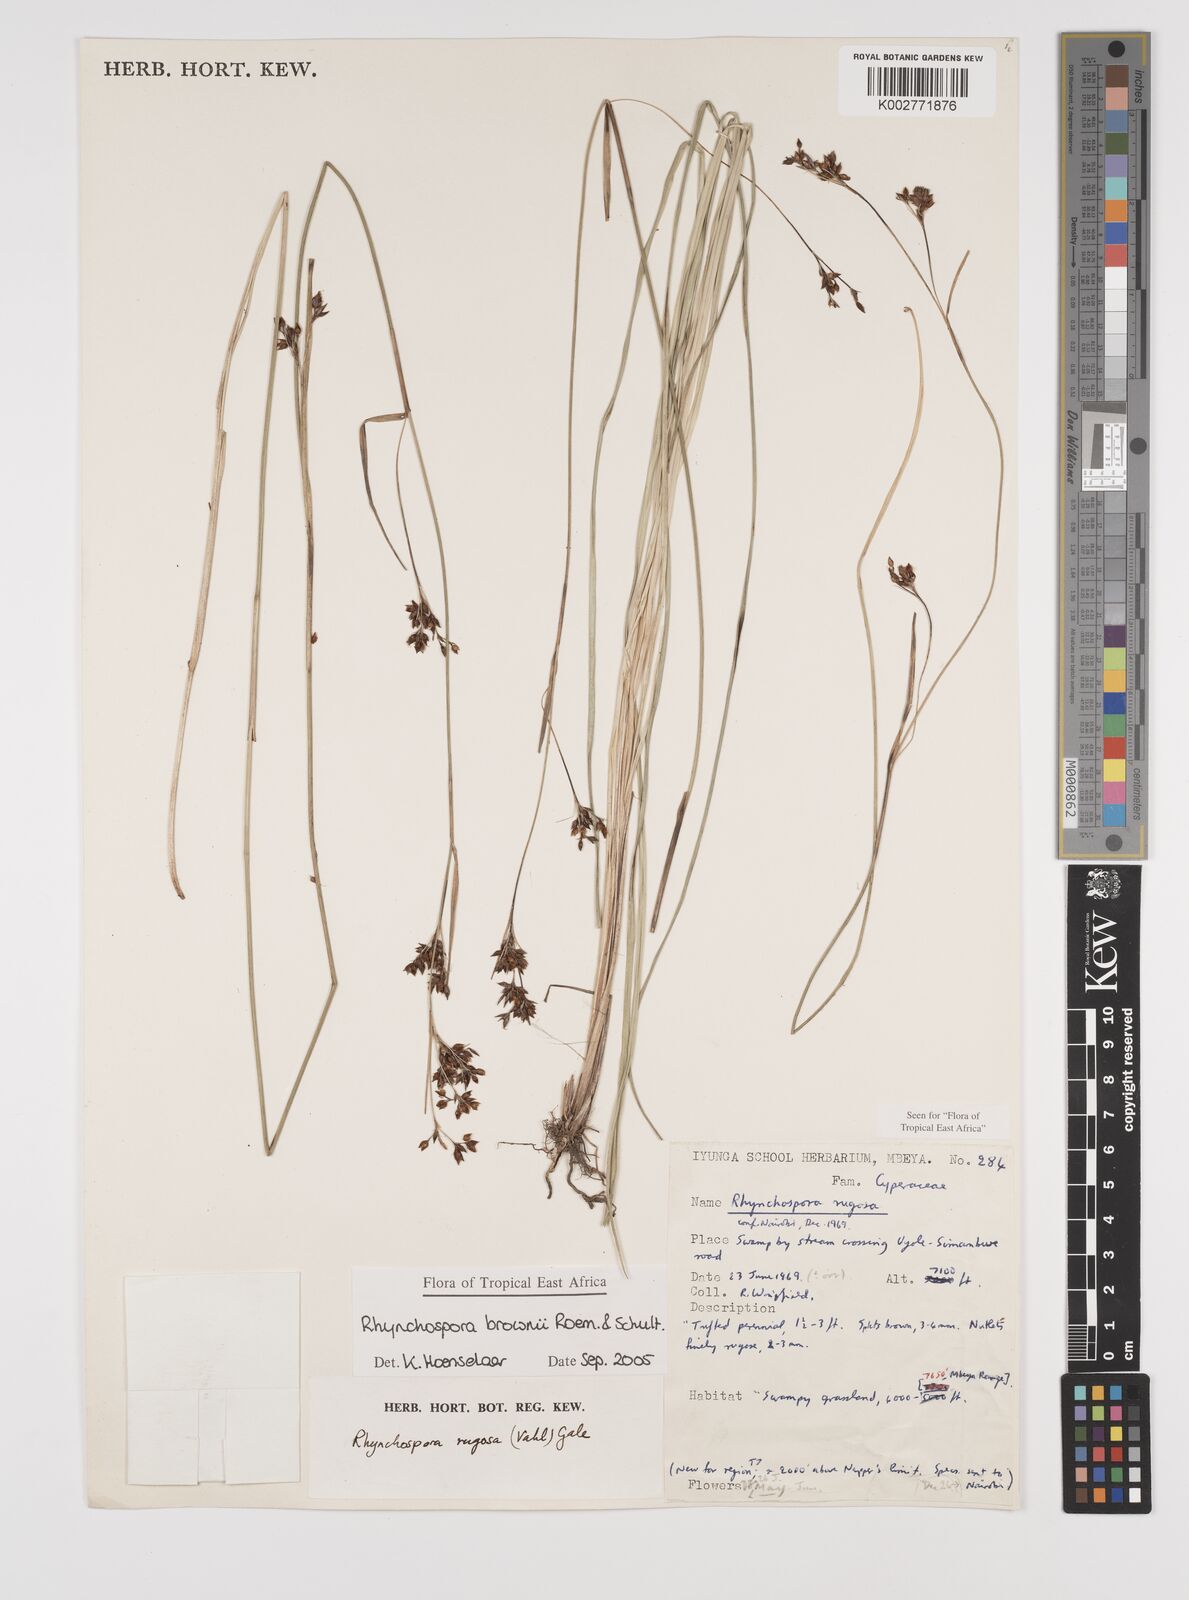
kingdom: Plantae
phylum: Tracheophyta
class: Liliopsida
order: Poales
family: Cyperaceae
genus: Rhynchospora
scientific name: Rhynchospora brownii
